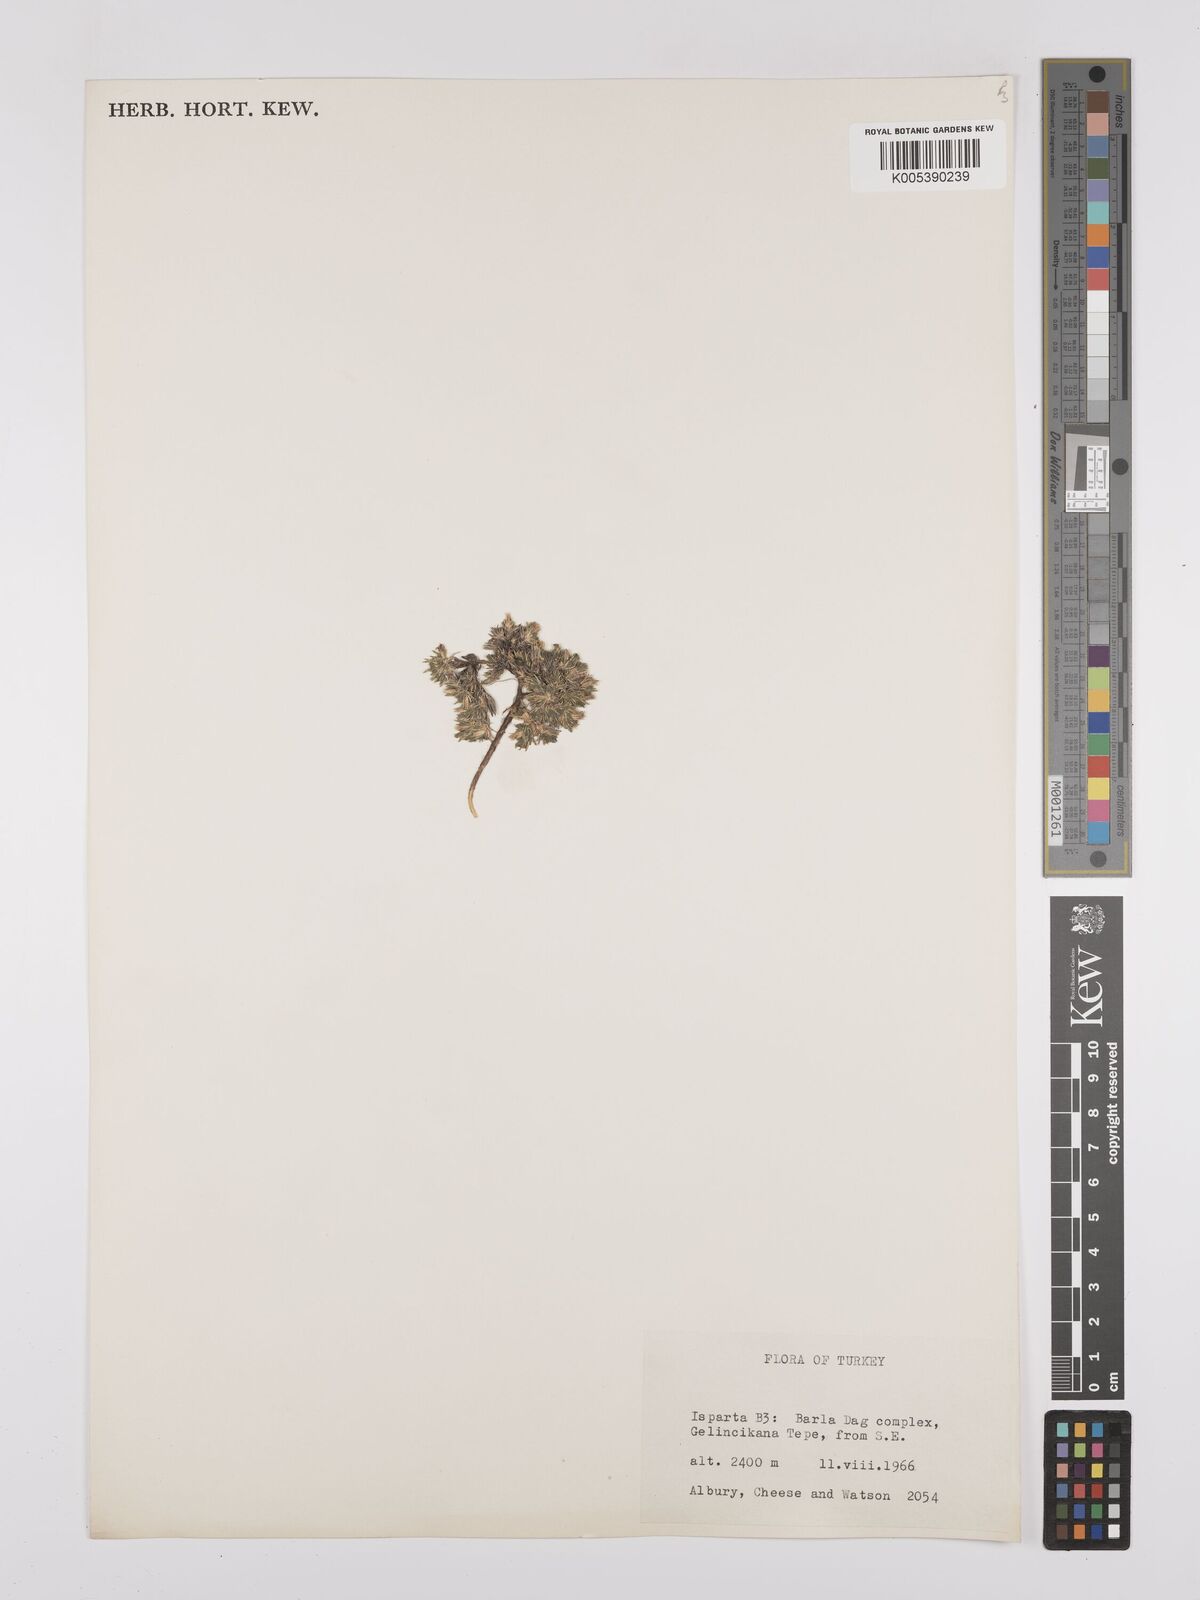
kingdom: Plantae
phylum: Tracheophyta
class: Magnoliopsida
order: Caryophyllales
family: Caryophyllaceae
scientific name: Caryophyllaceae
